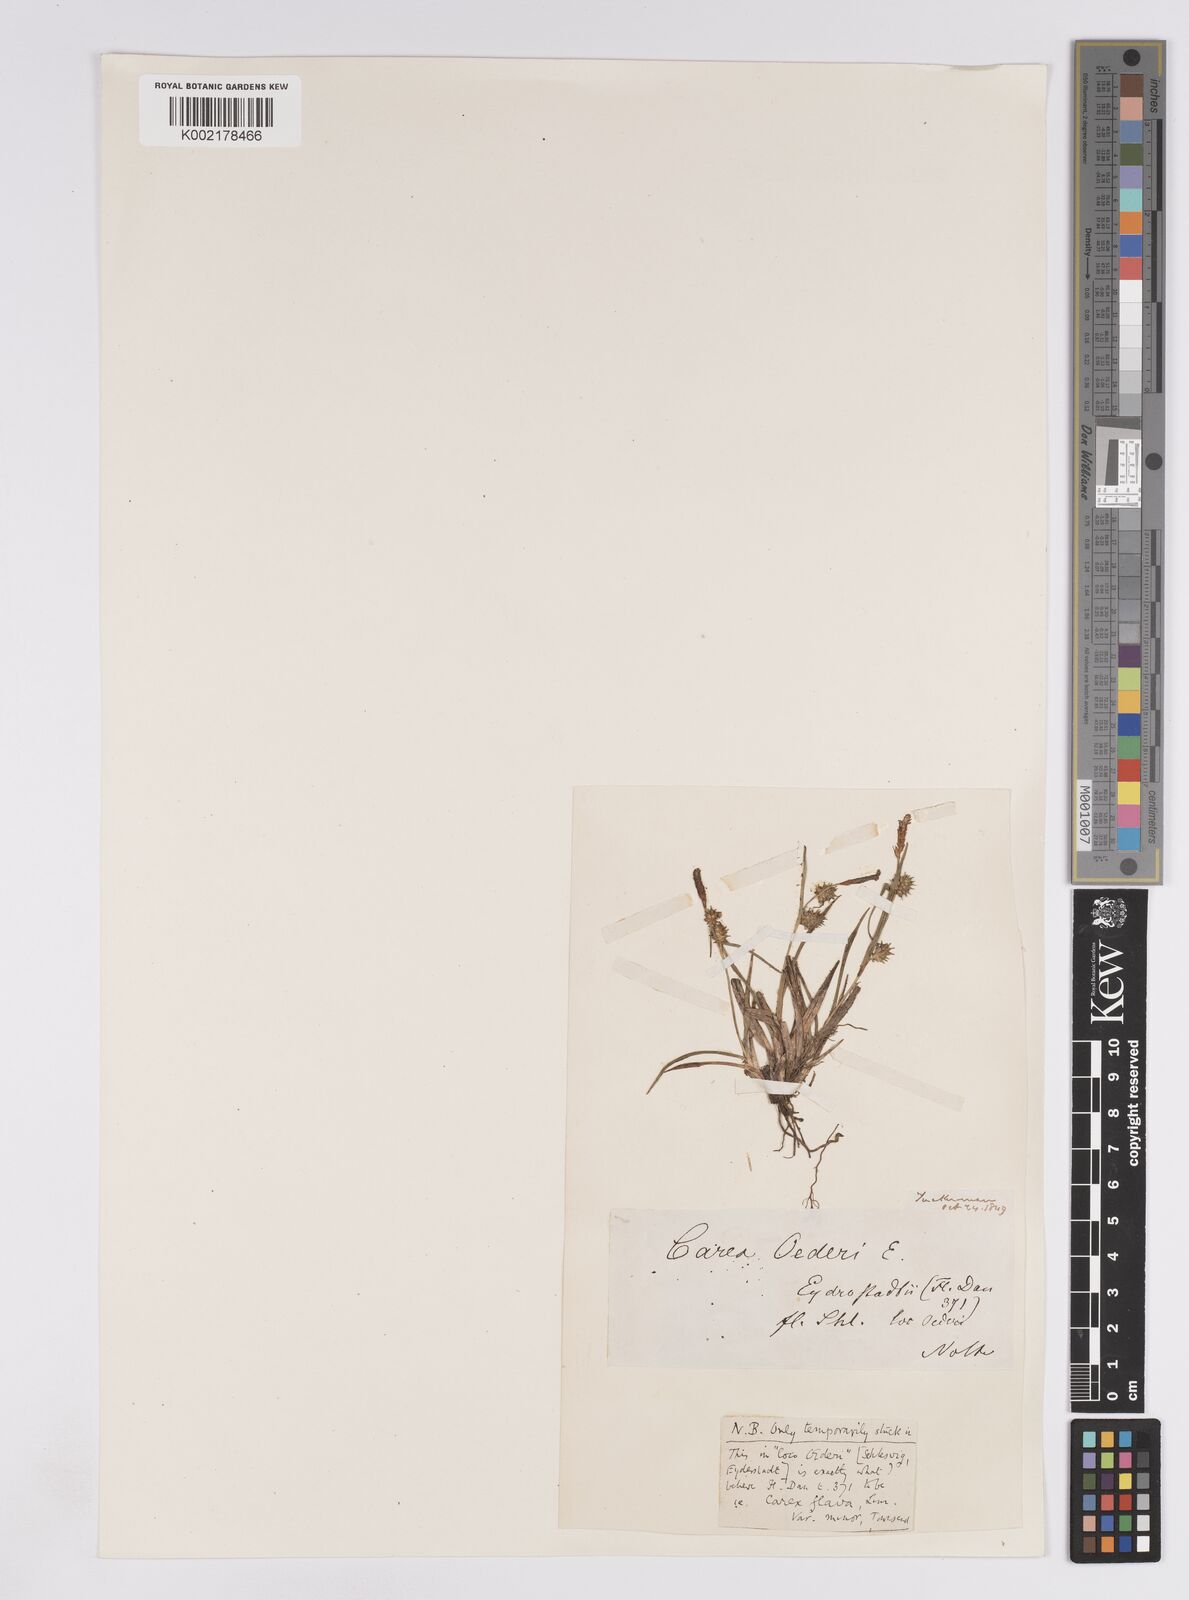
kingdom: Plantae
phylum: Tracheophyta
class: Liliopsida
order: Poales
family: Cyperaceae
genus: Carex
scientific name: Carex demissa
